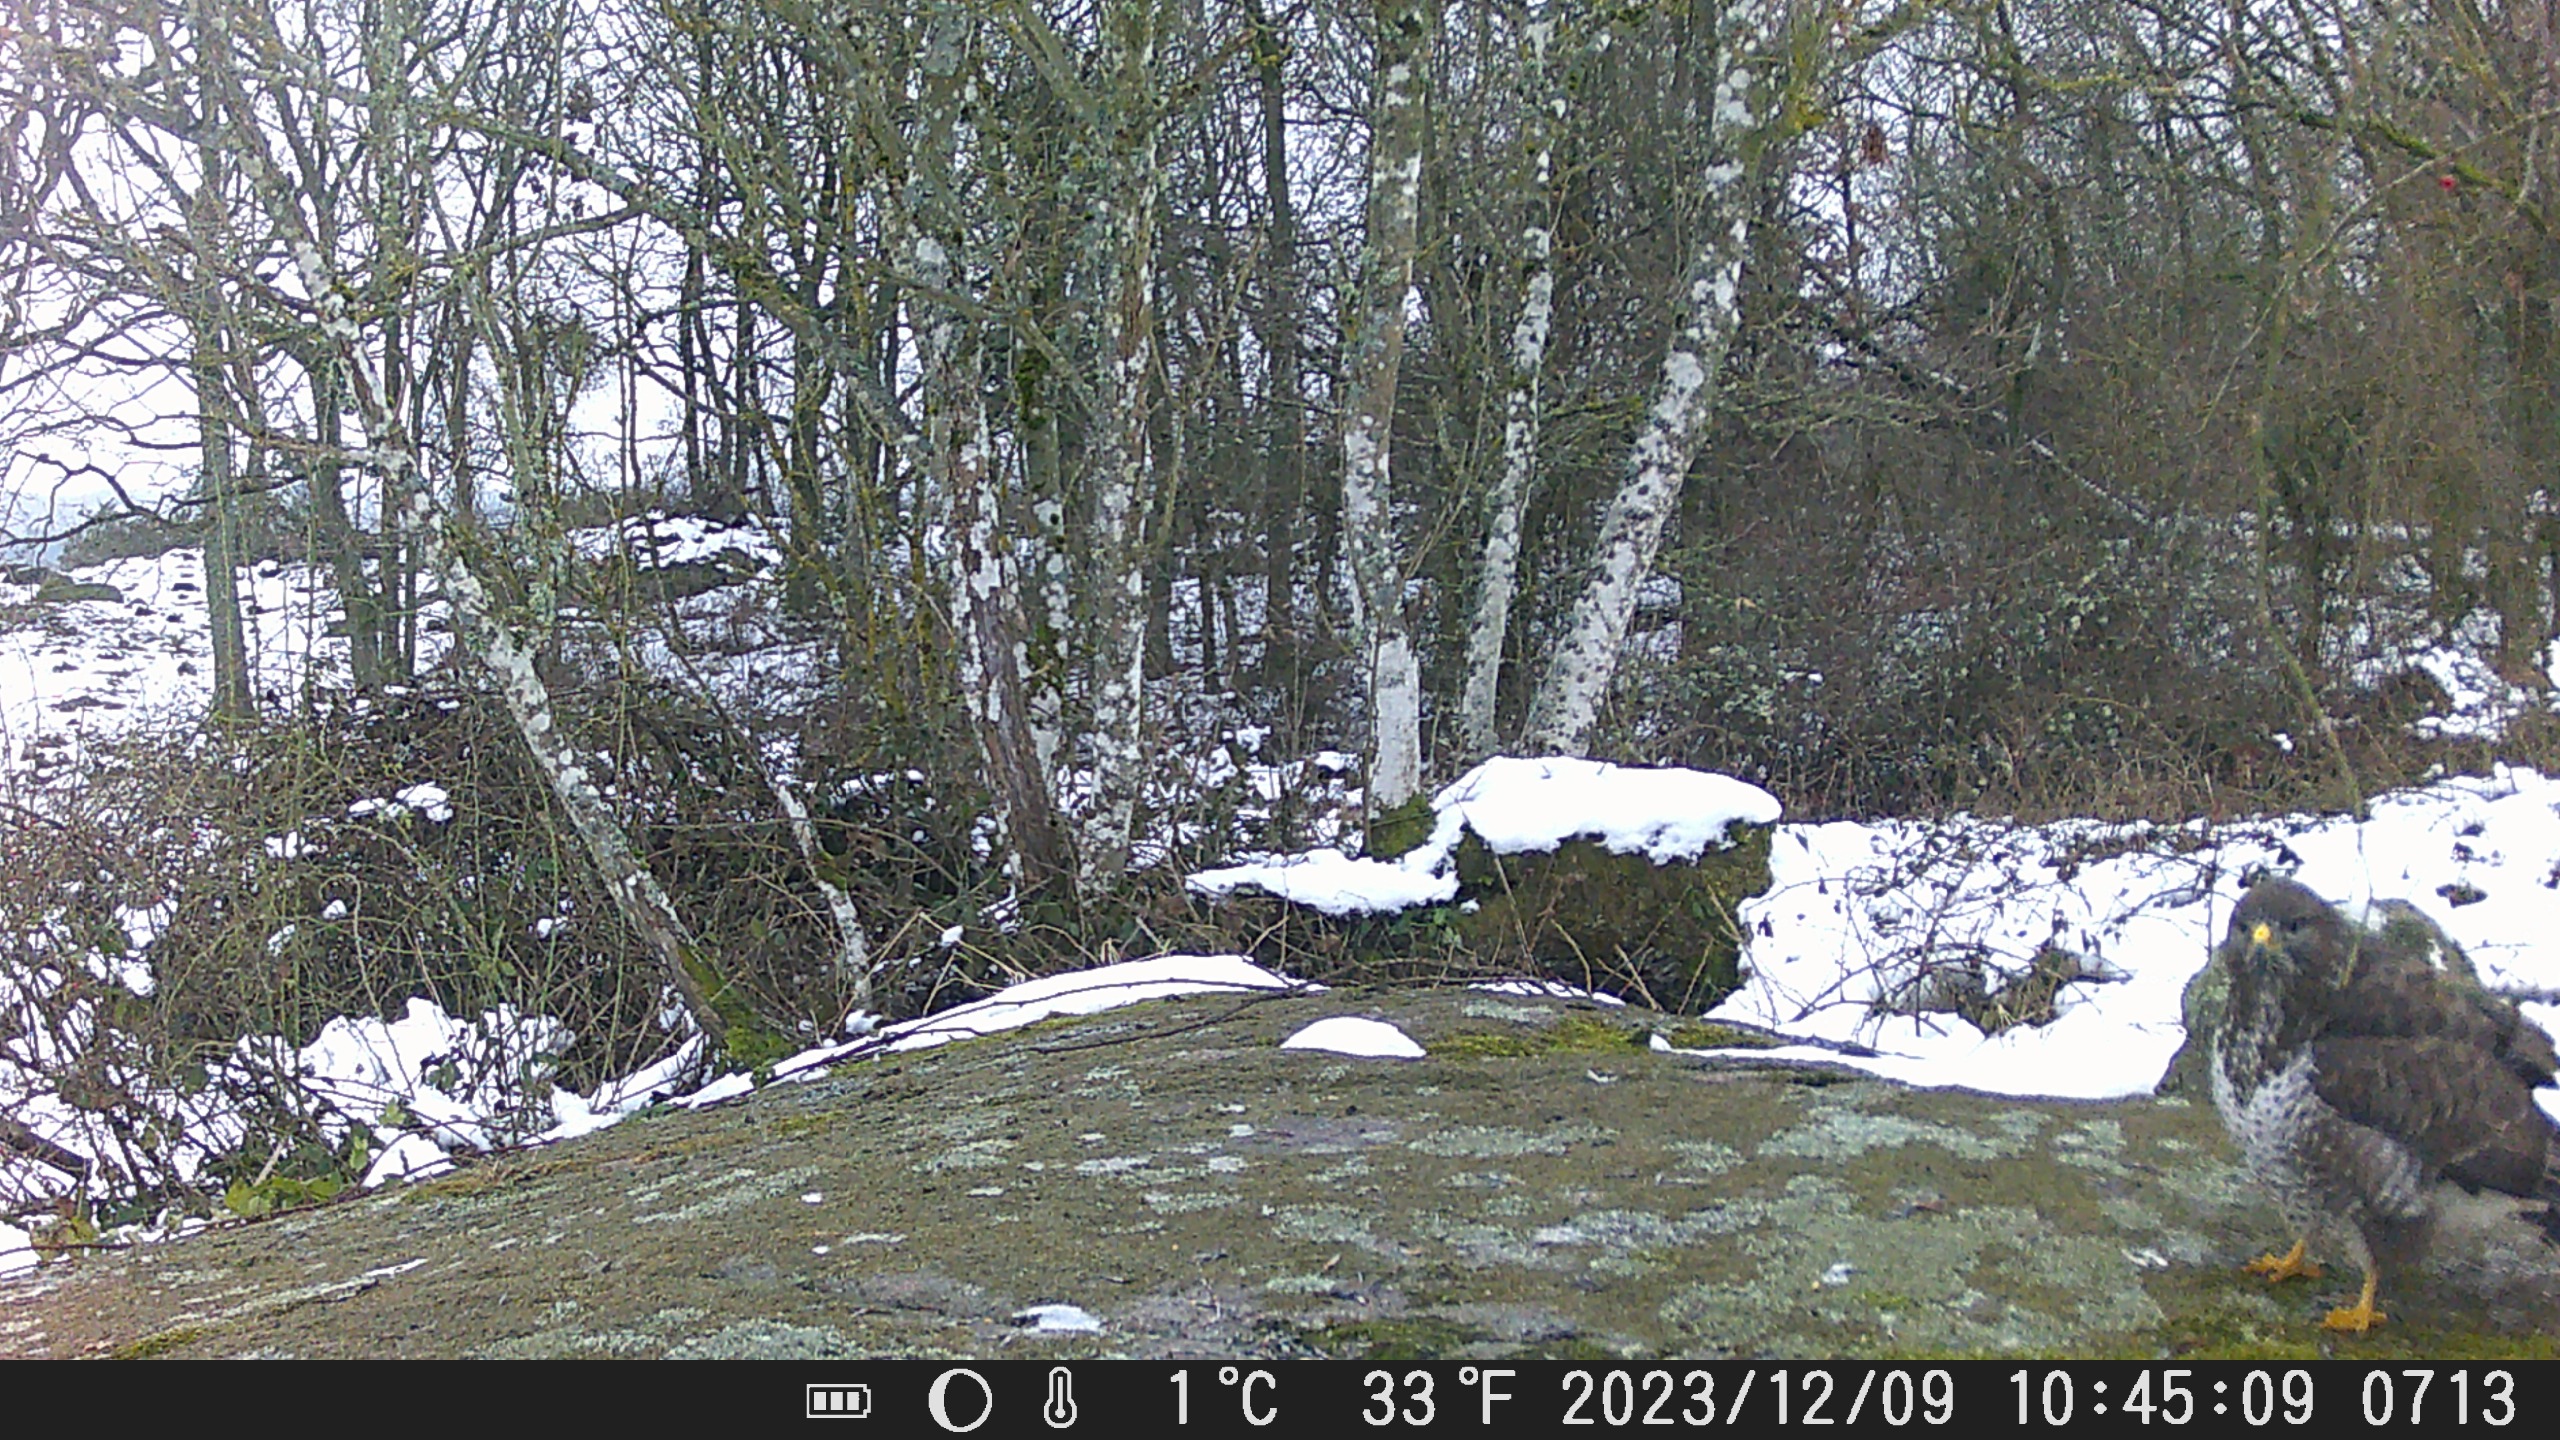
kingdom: Animalia
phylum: Chordata
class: Aves
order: Accipitriformes
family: Accipitridae
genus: Buteo
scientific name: Buteo buteo
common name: Musvåge
